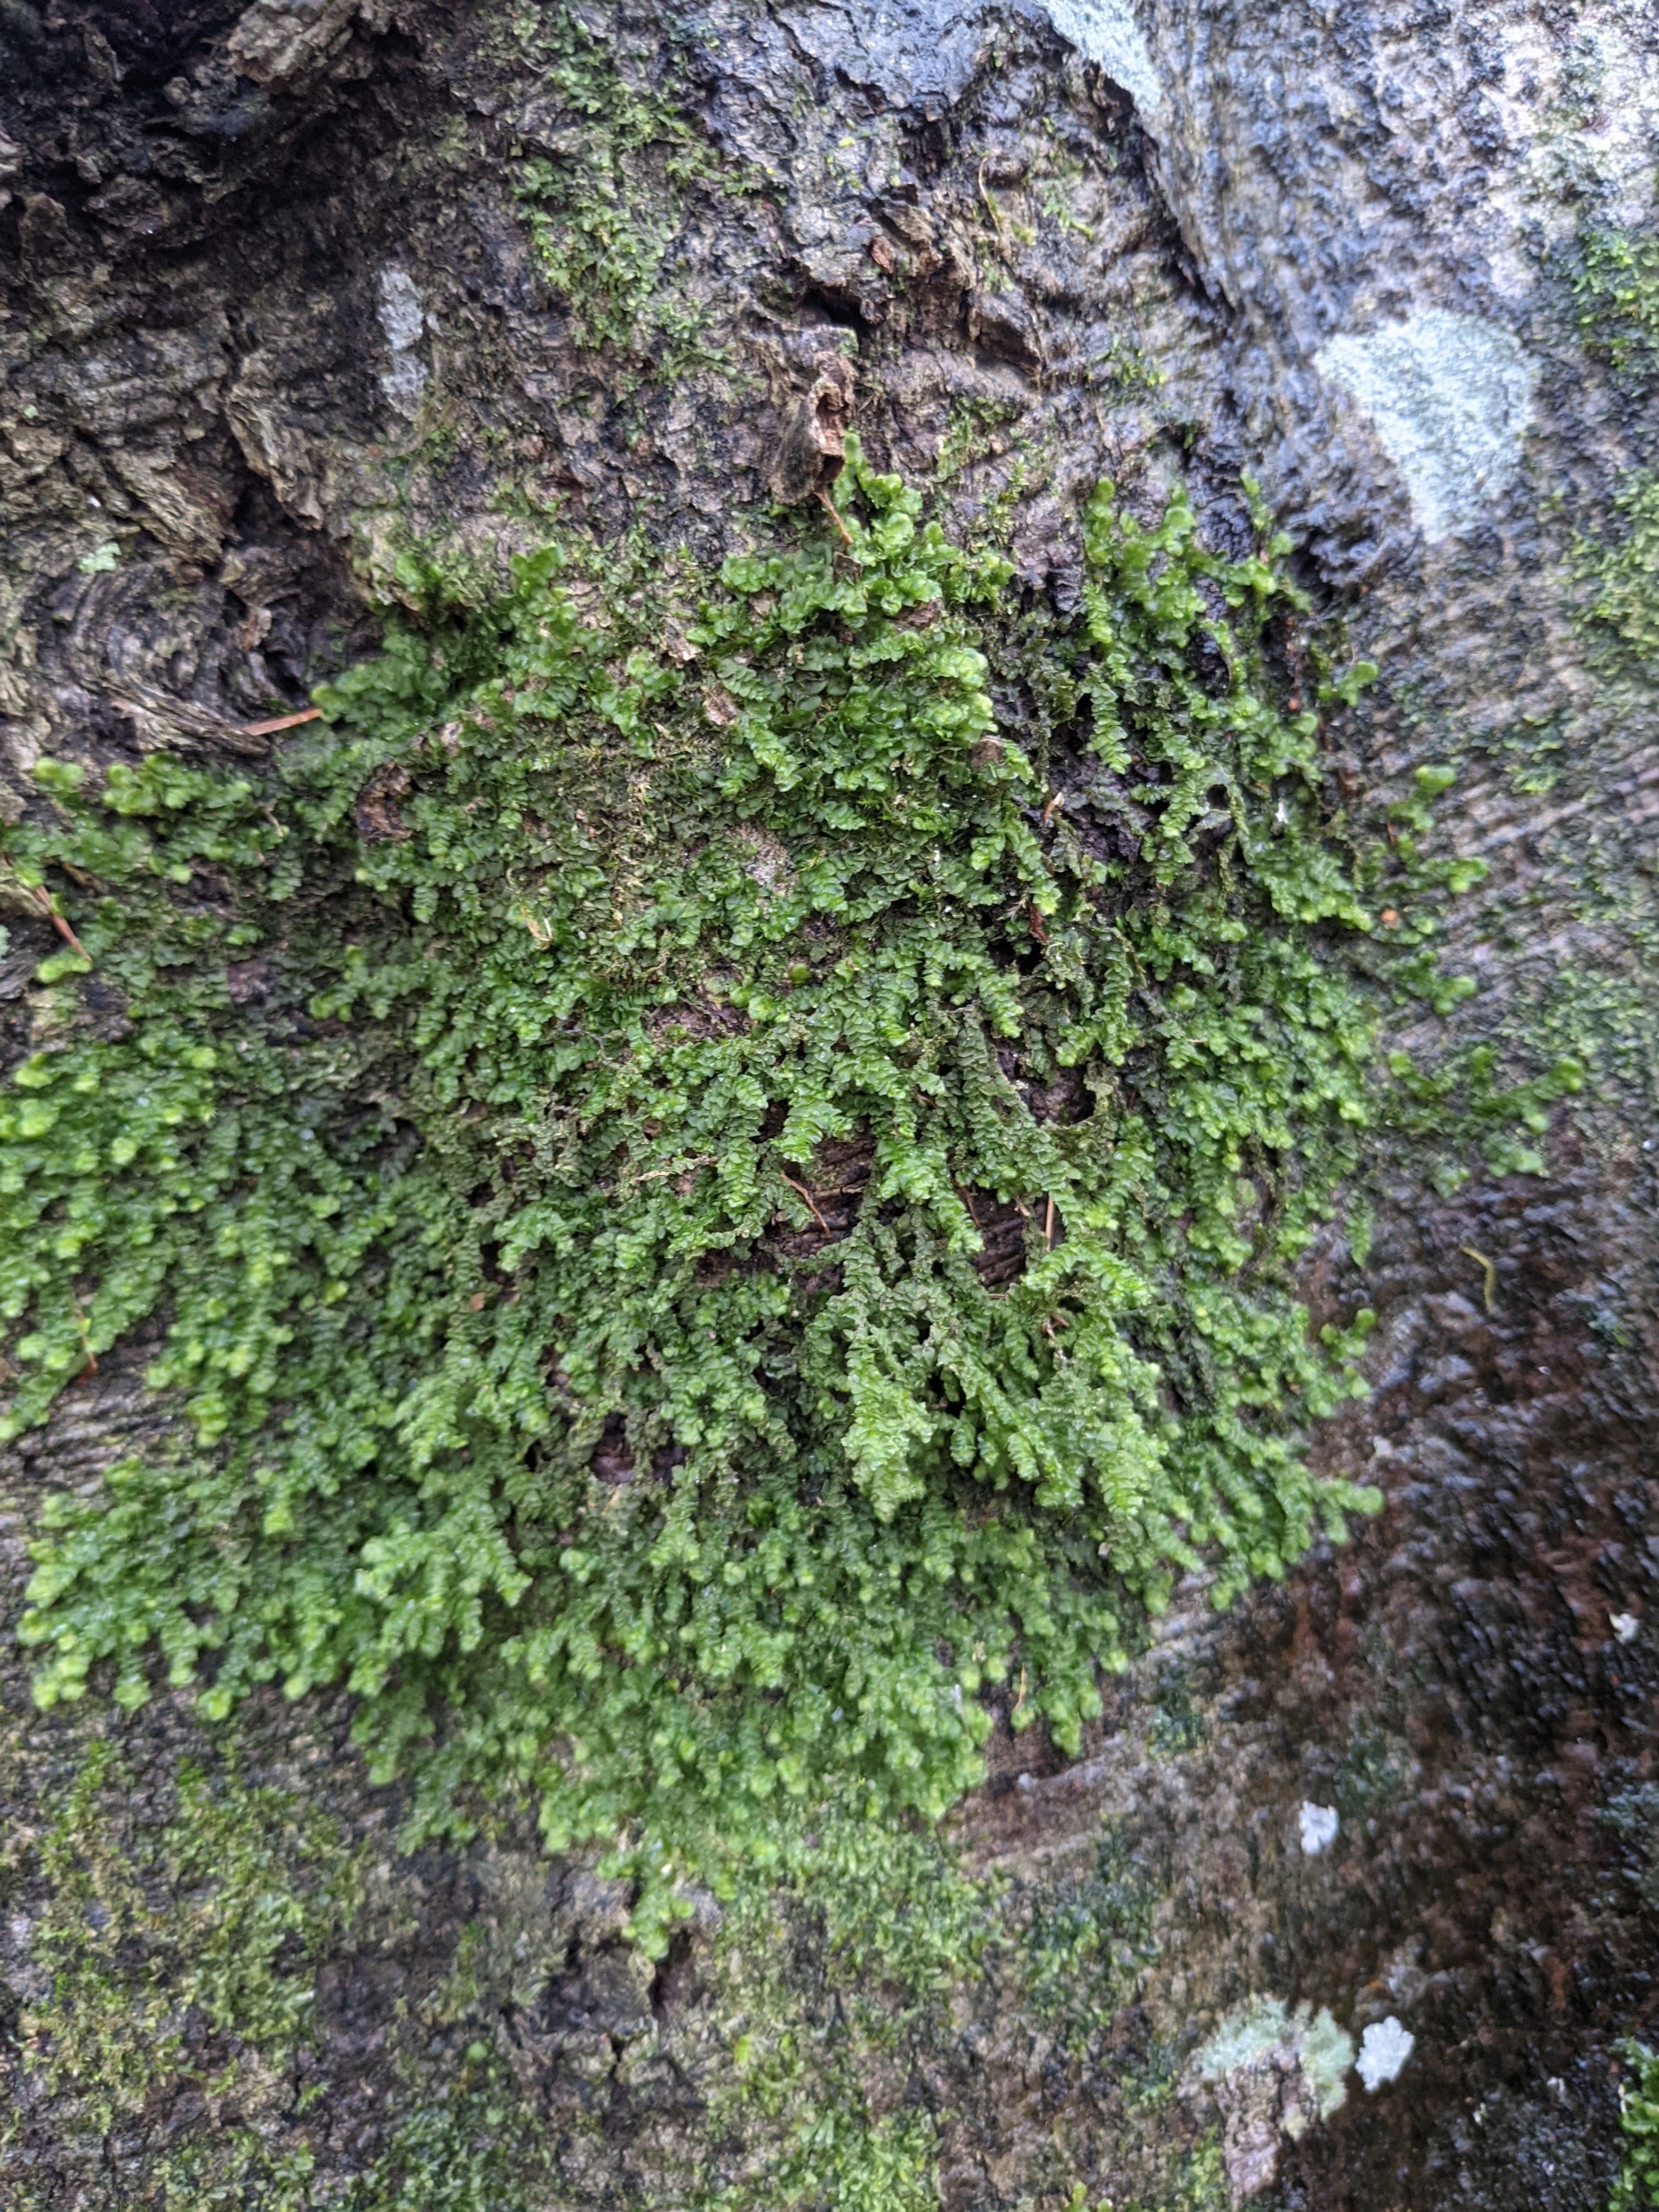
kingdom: Plantae
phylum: Marchantiophyta
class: Jungermanniopsida
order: Porellales
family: Porellaceae
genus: Porella
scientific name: Porella platyphylla
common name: Almindelig skælryg
